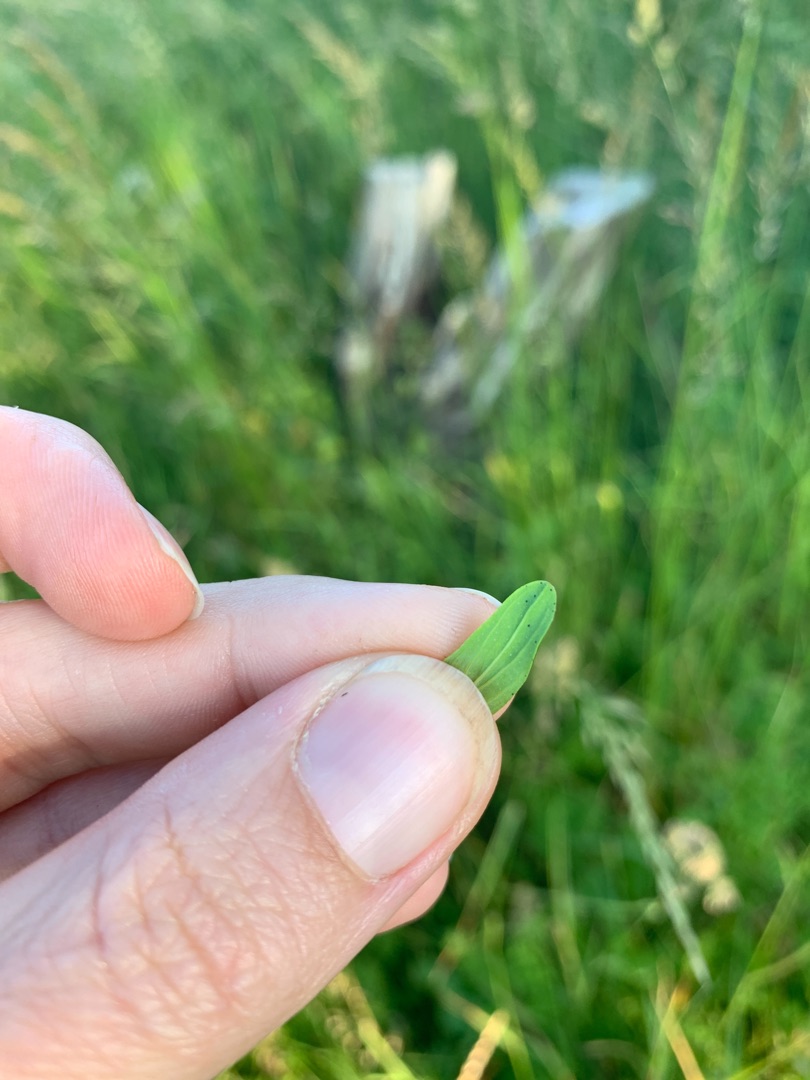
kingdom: Plantae
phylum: Tracheophyta
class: Magnoliopsida
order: Malpighiales
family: Hypericaceae
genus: Hypericum
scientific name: Hypericum perforatum
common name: Prikbladet perikon
